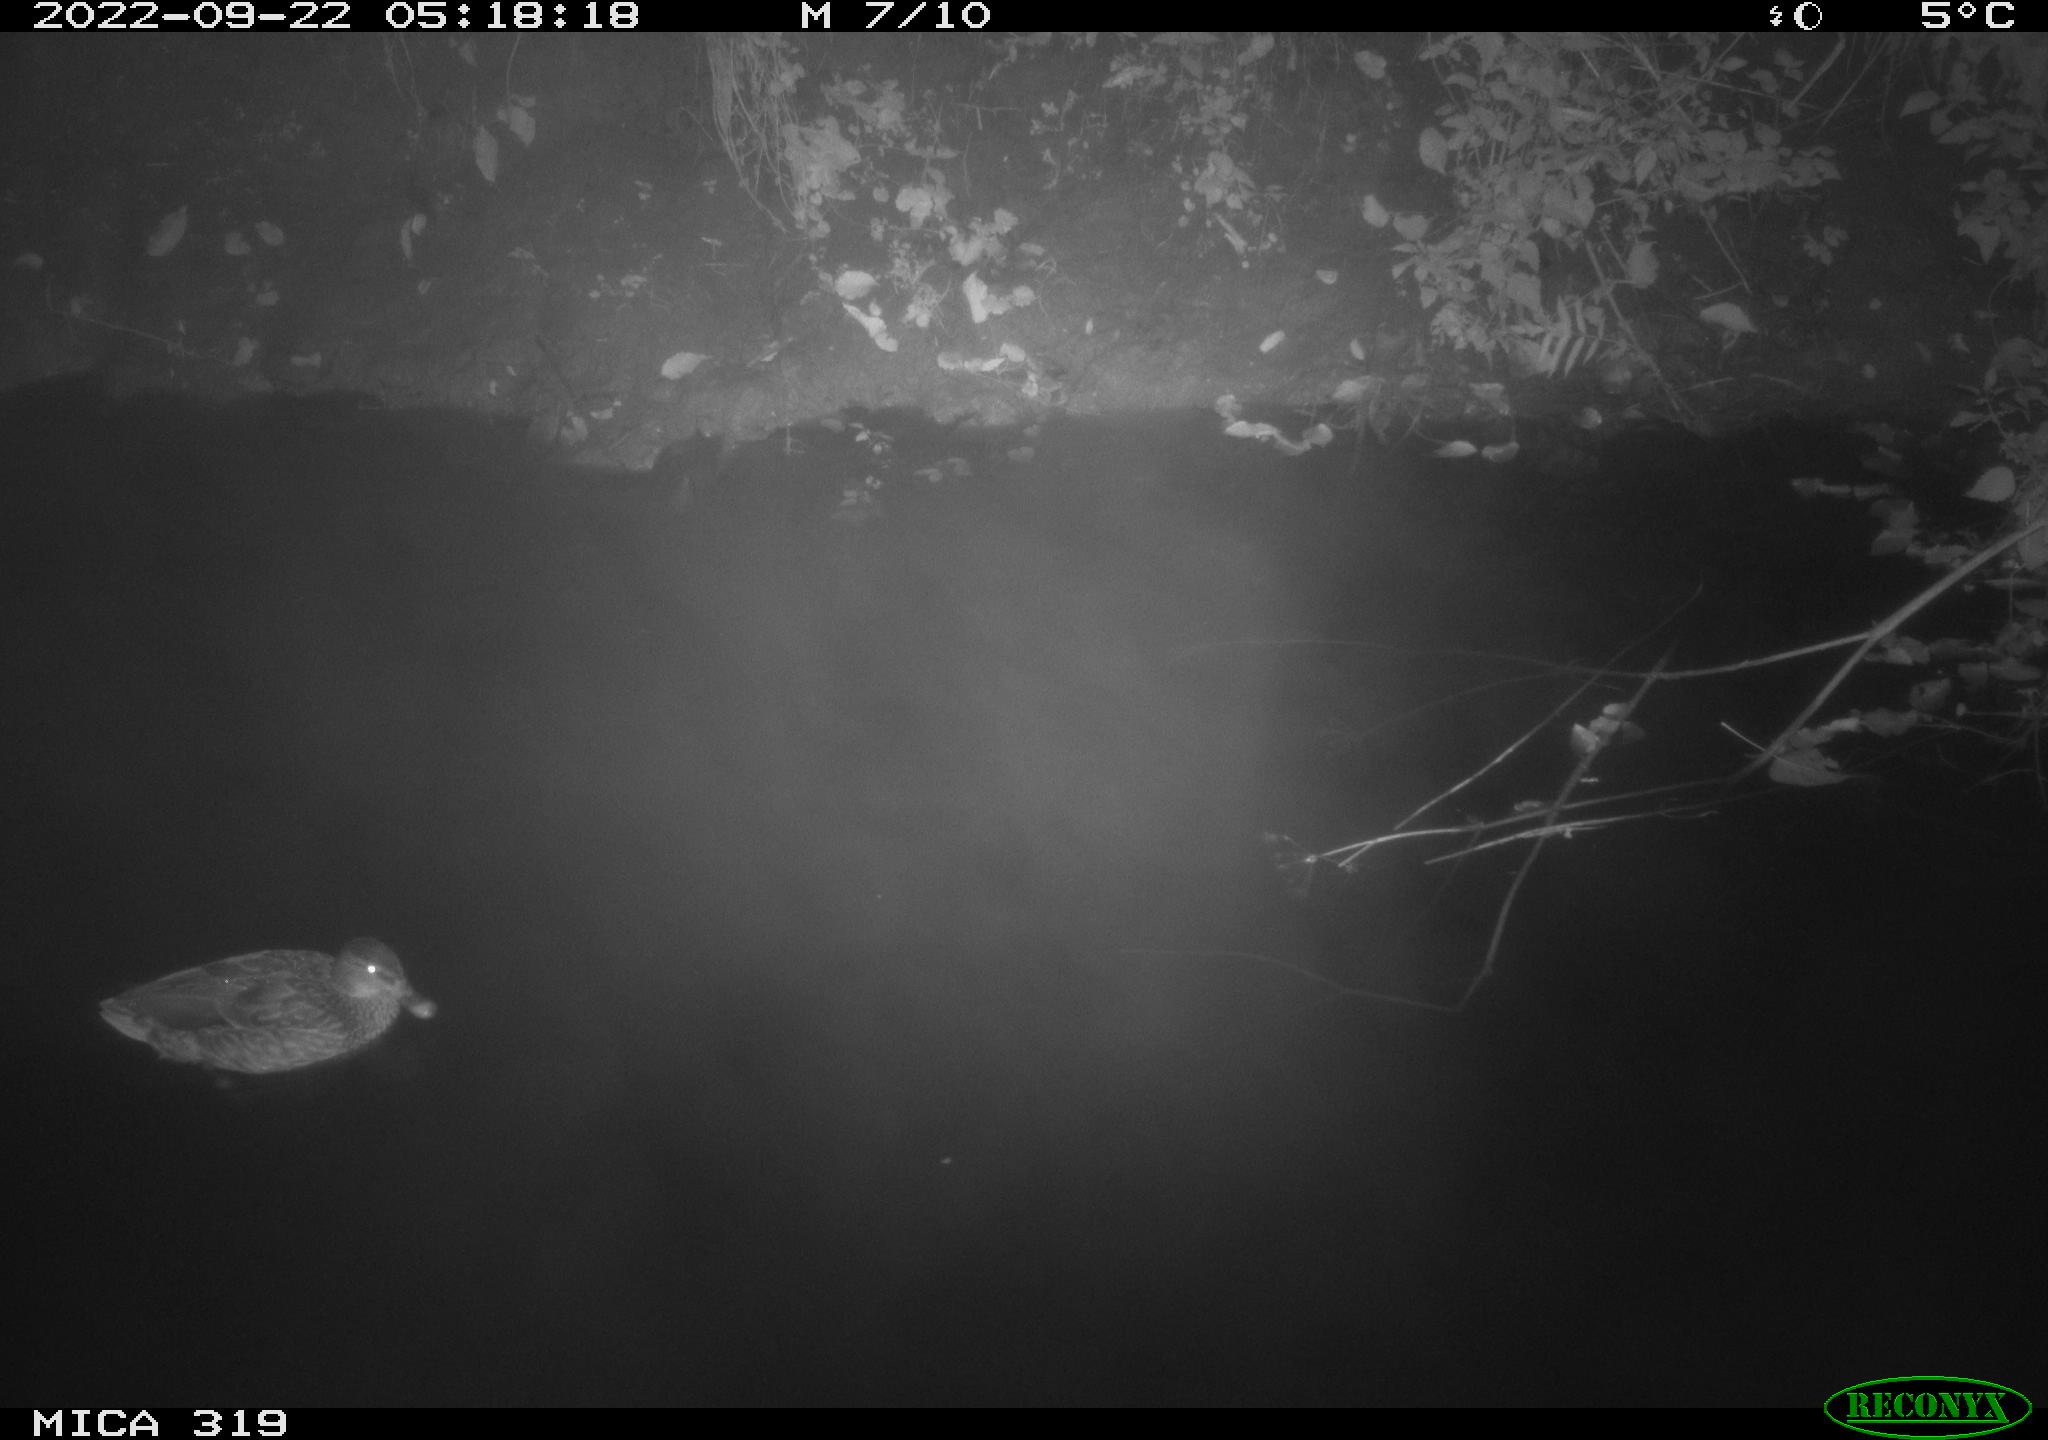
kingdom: Animalia
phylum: Chordata
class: Aves
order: Anseriformes
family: Anatidae
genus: Anas
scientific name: Anas
